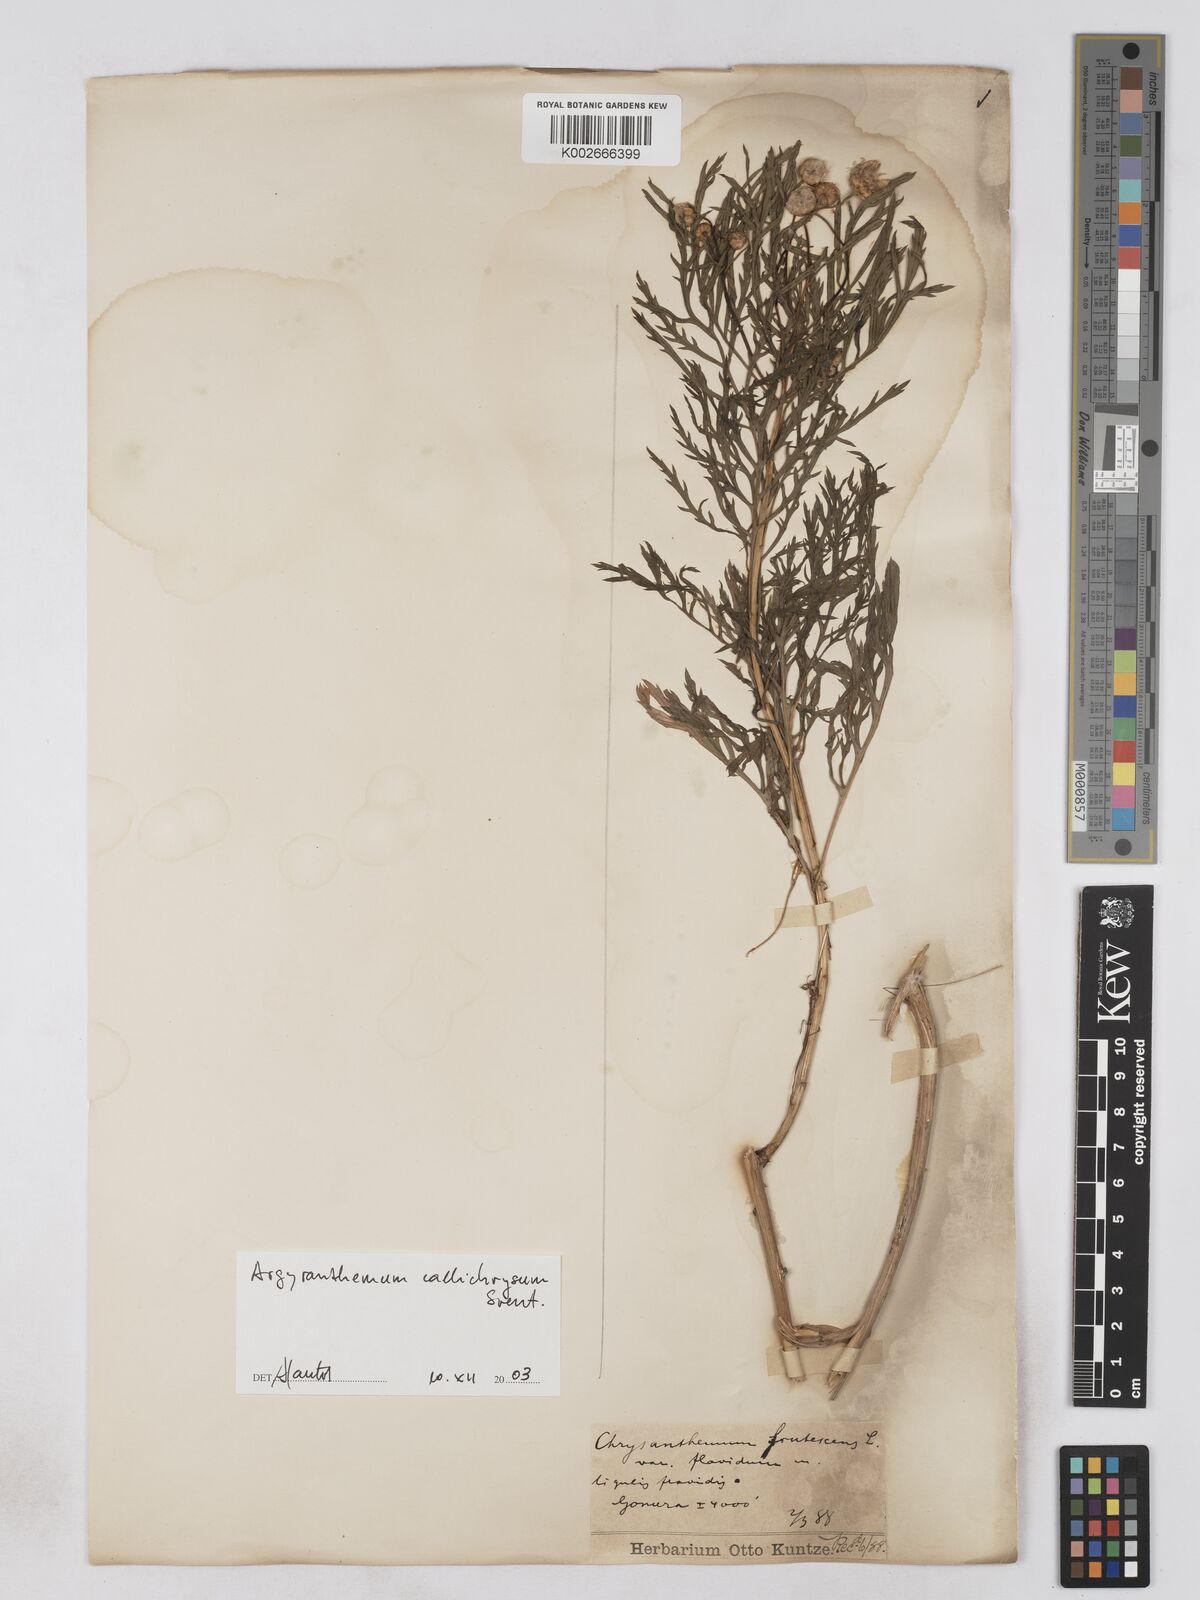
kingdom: Plantae
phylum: Tracheophyta
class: Magnoliopsida
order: Asterales
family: Asteraceae
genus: Argyranthemum
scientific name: Argyranthemum frutescens
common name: Paris daisy
